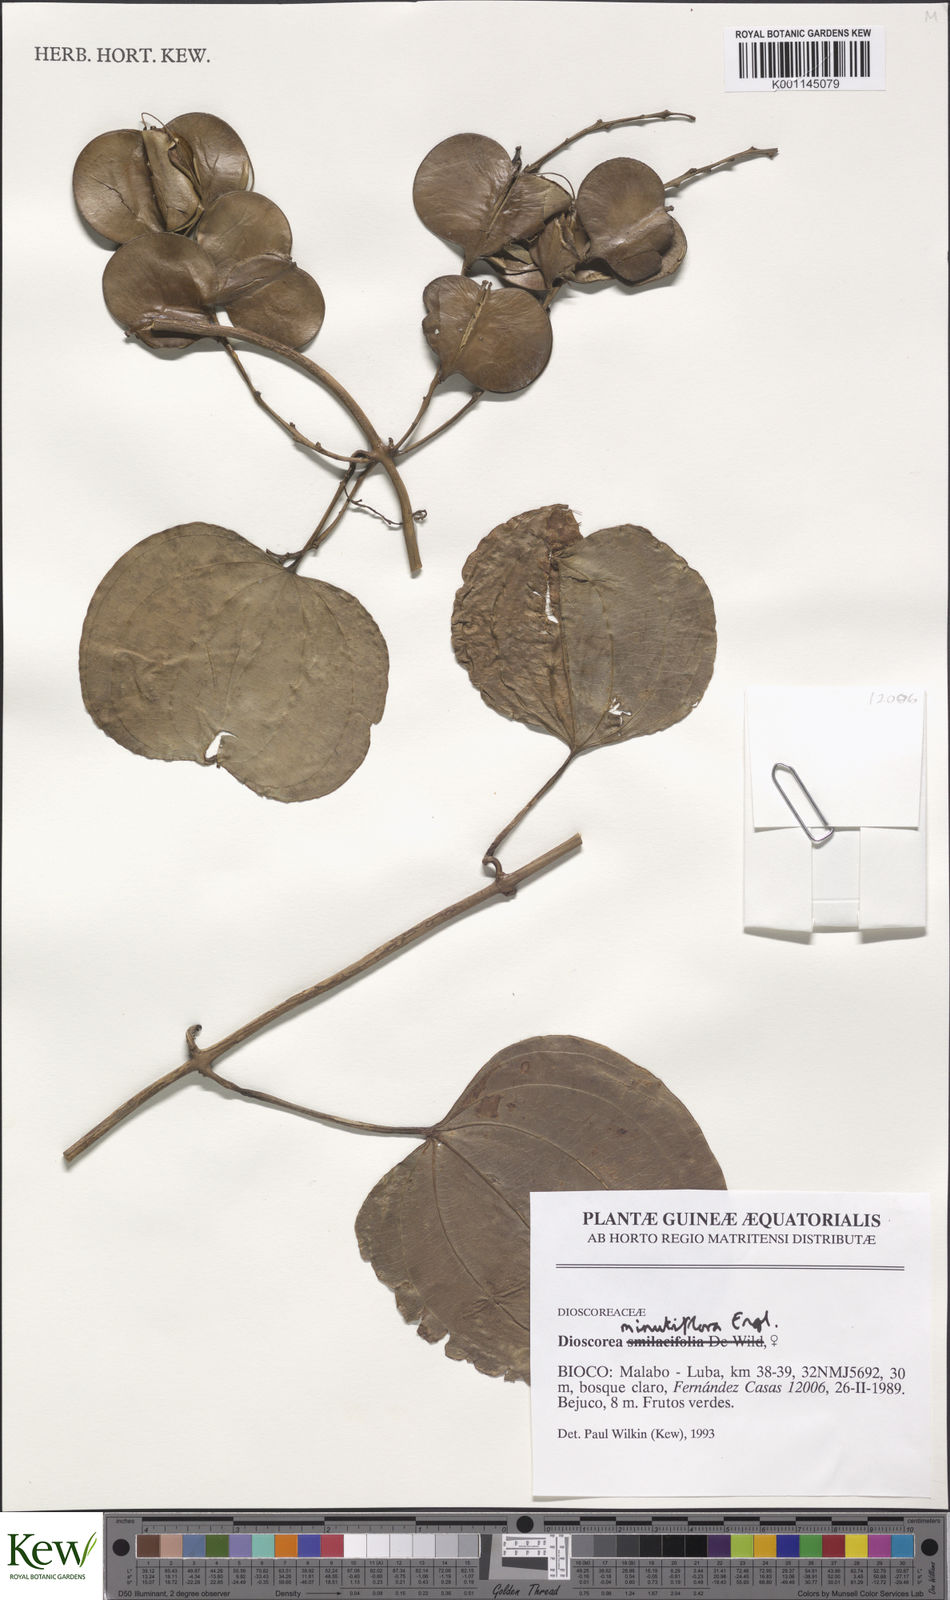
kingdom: Plantae
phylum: Tracheophyta
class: Liliopsida
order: Dioscoreales
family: Dioscoreaceae
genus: Dioscorea
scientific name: Dioscorea minutiflora
